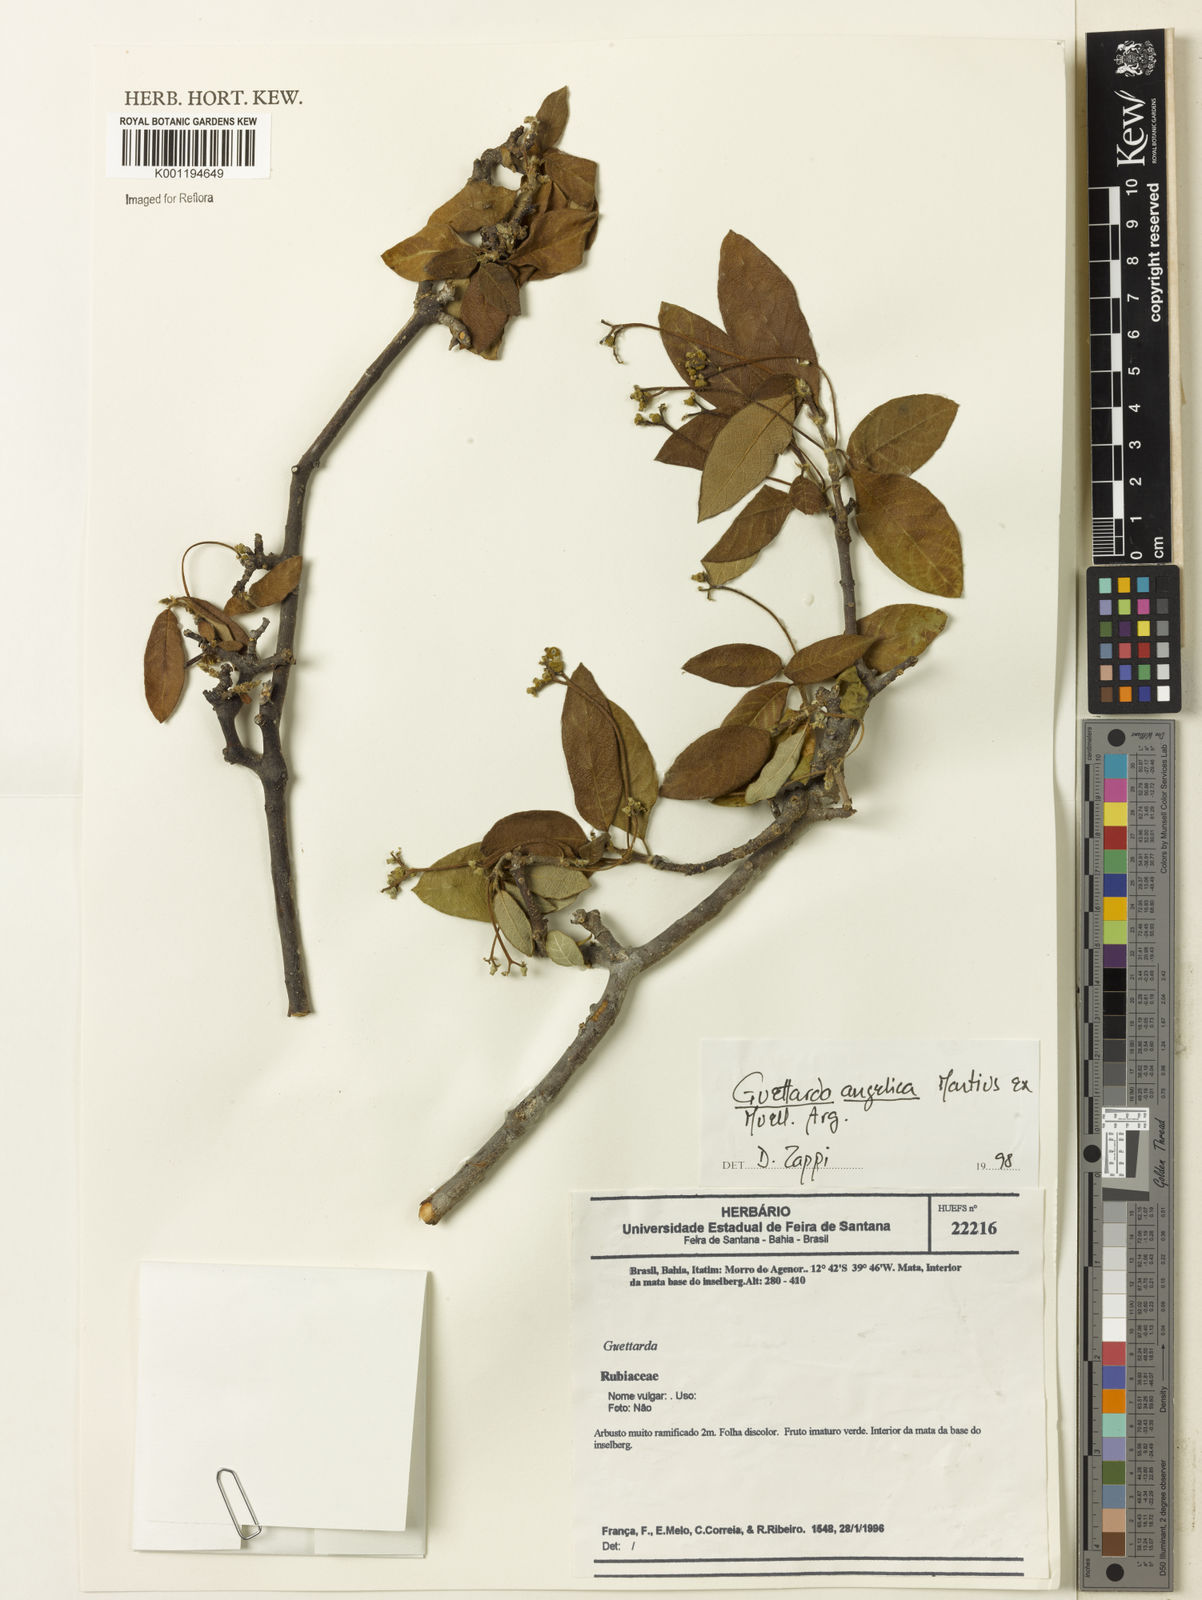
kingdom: Plantae
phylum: Tracheophyta
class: Magnoliopsida
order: Gentianales
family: Rubiaceae
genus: Guettarda
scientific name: Guettarda
